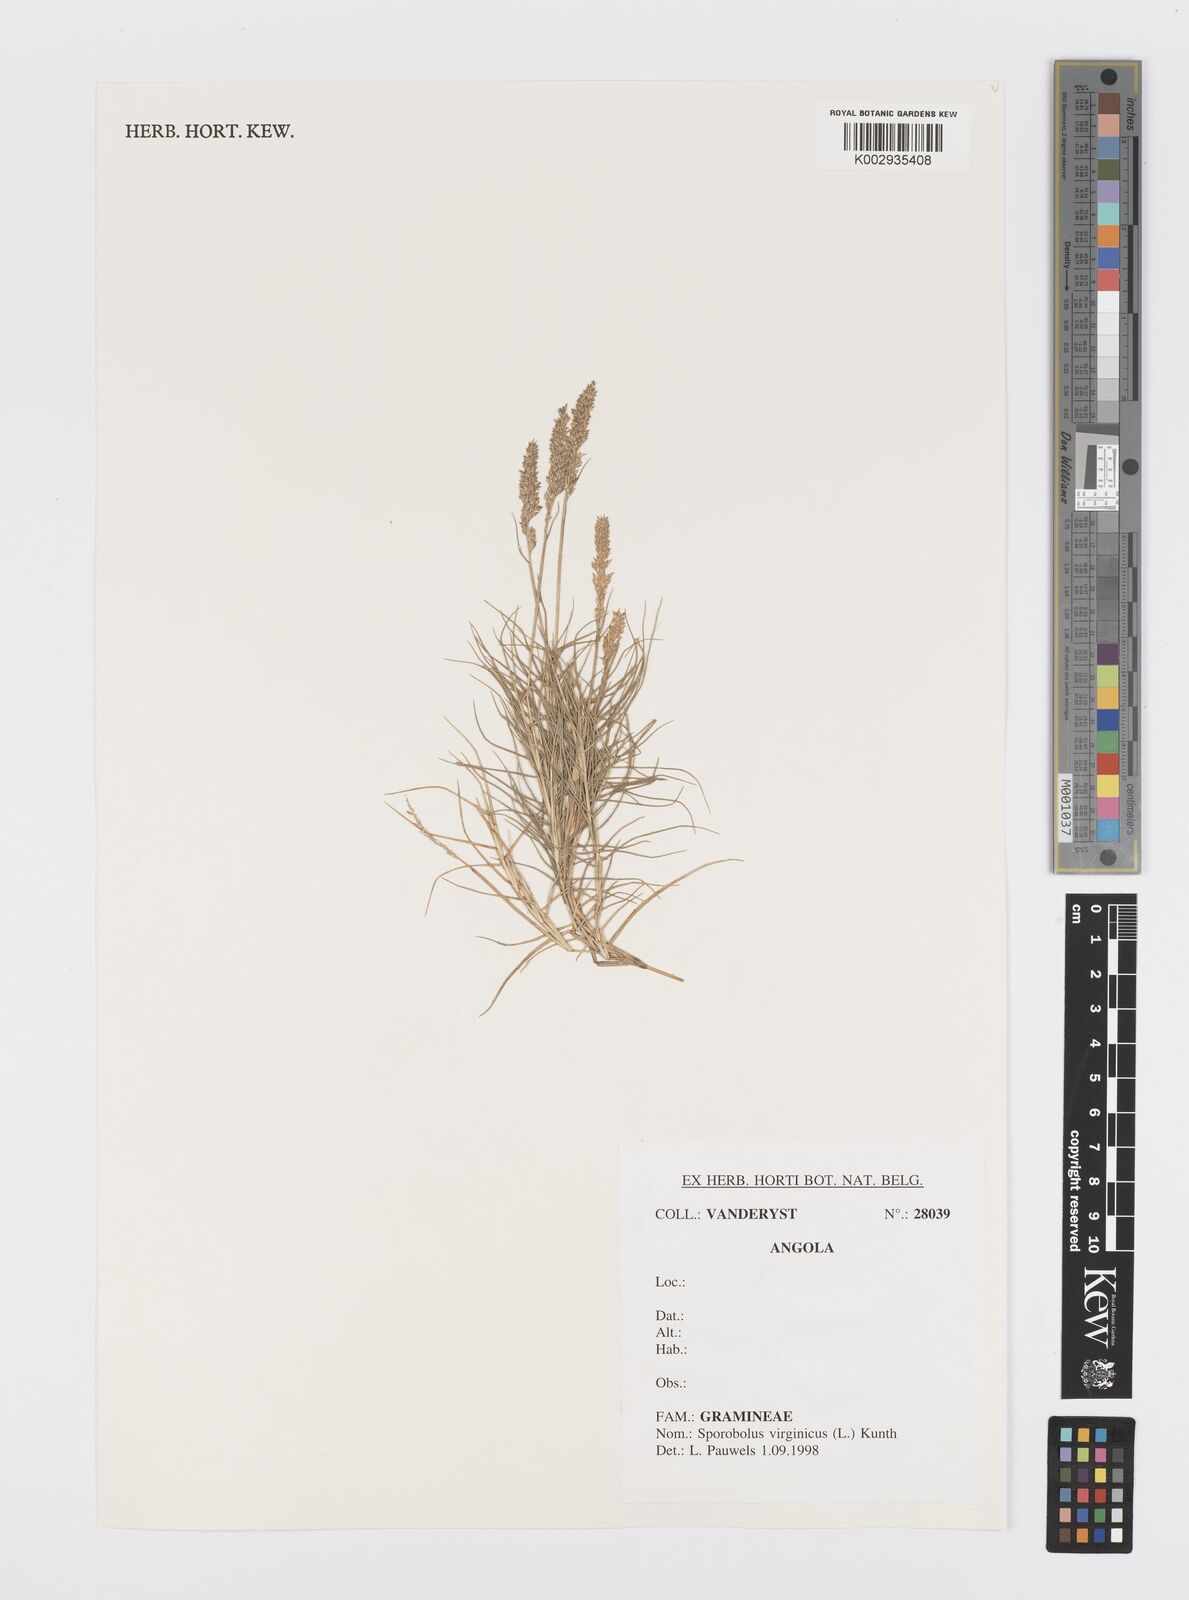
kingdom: Plantae
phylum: Tracheophyta
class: Liliopsida
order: Poales
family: Poaceae
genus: Sporobolus
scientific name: Sporobolus virginicus
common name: Beach dropseed
